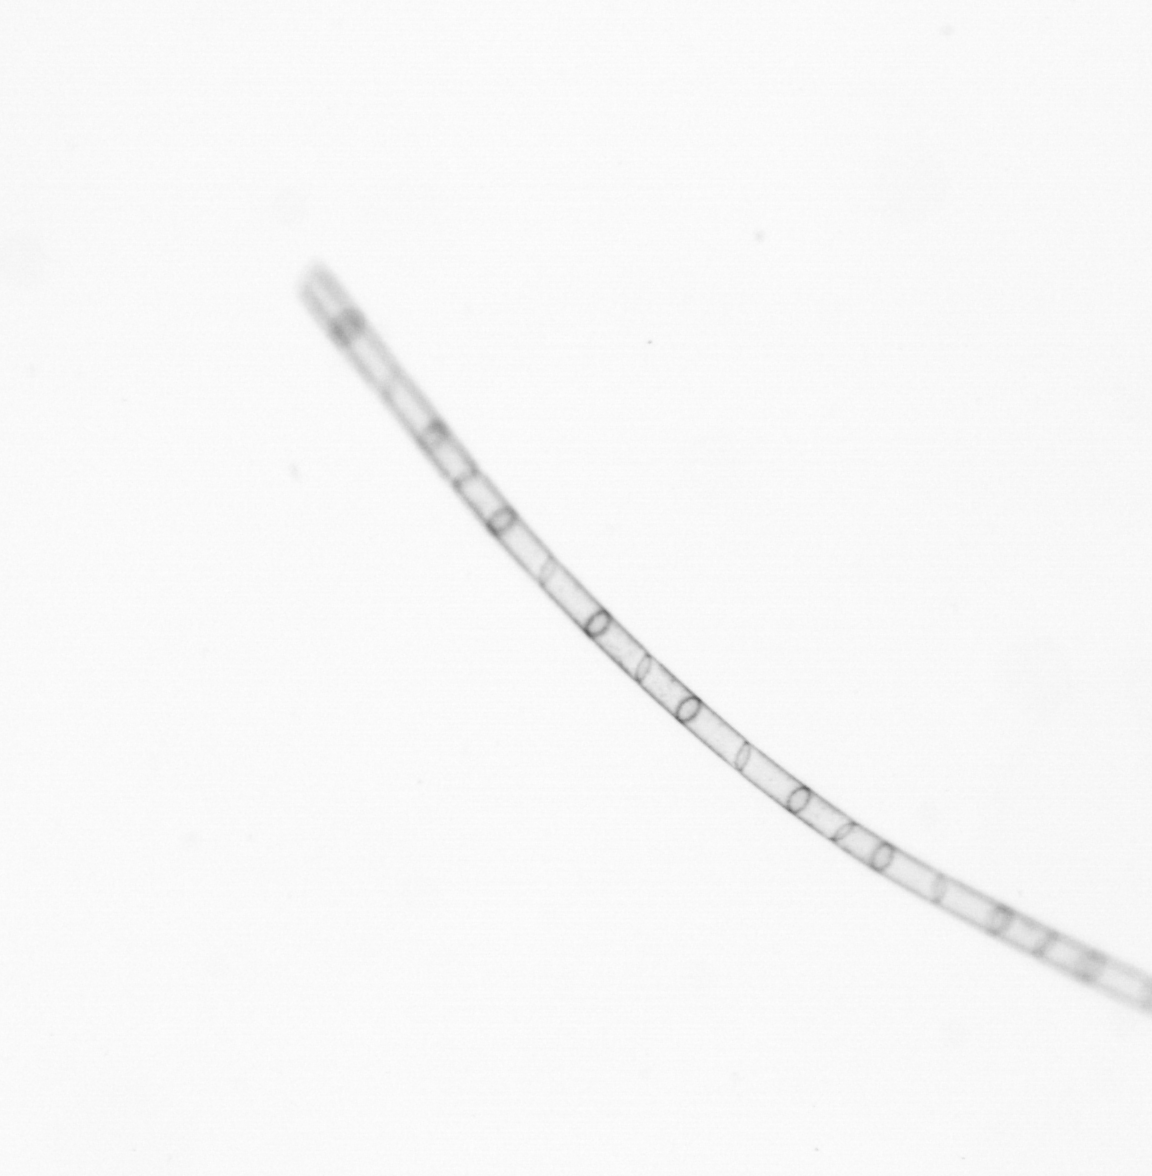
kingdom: Chromista
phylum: Ochrophyta
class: Bacillariophyceae
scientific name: Bacillariophyceae
